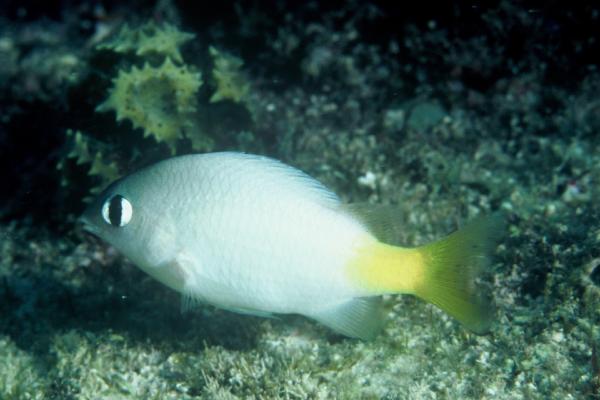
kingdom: Animalia
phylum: Chordata
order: Perciformes
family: Pomacentridae
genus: Plectroglyphidodon
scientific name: Plectroglyphidodon imparipennis
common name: Brighteye damsel
